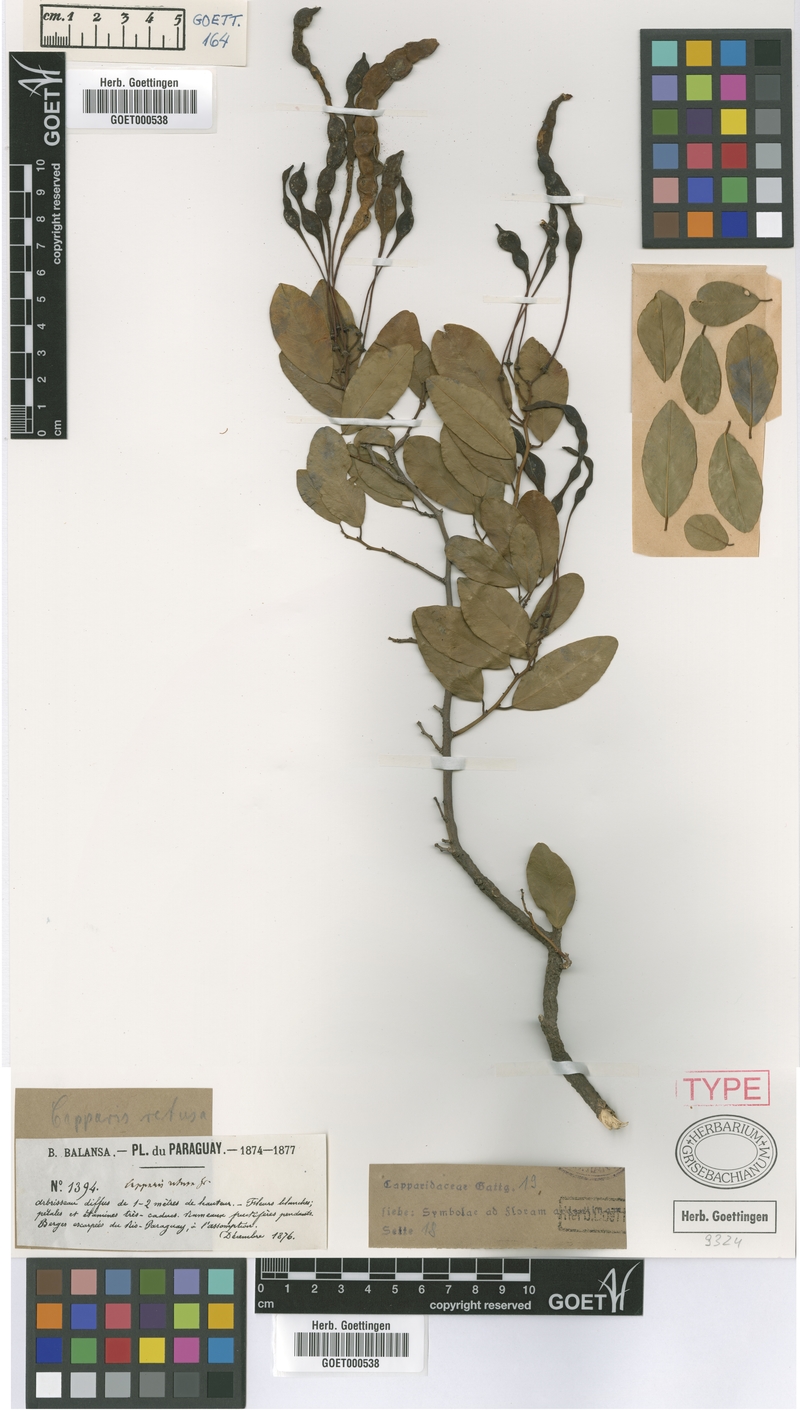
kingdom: Plantae
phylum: Tracheophyta
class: Magnoliopsida
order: Brassicales
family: Capparaceae
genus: Cynophalla
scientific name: Cynophalla retusa
